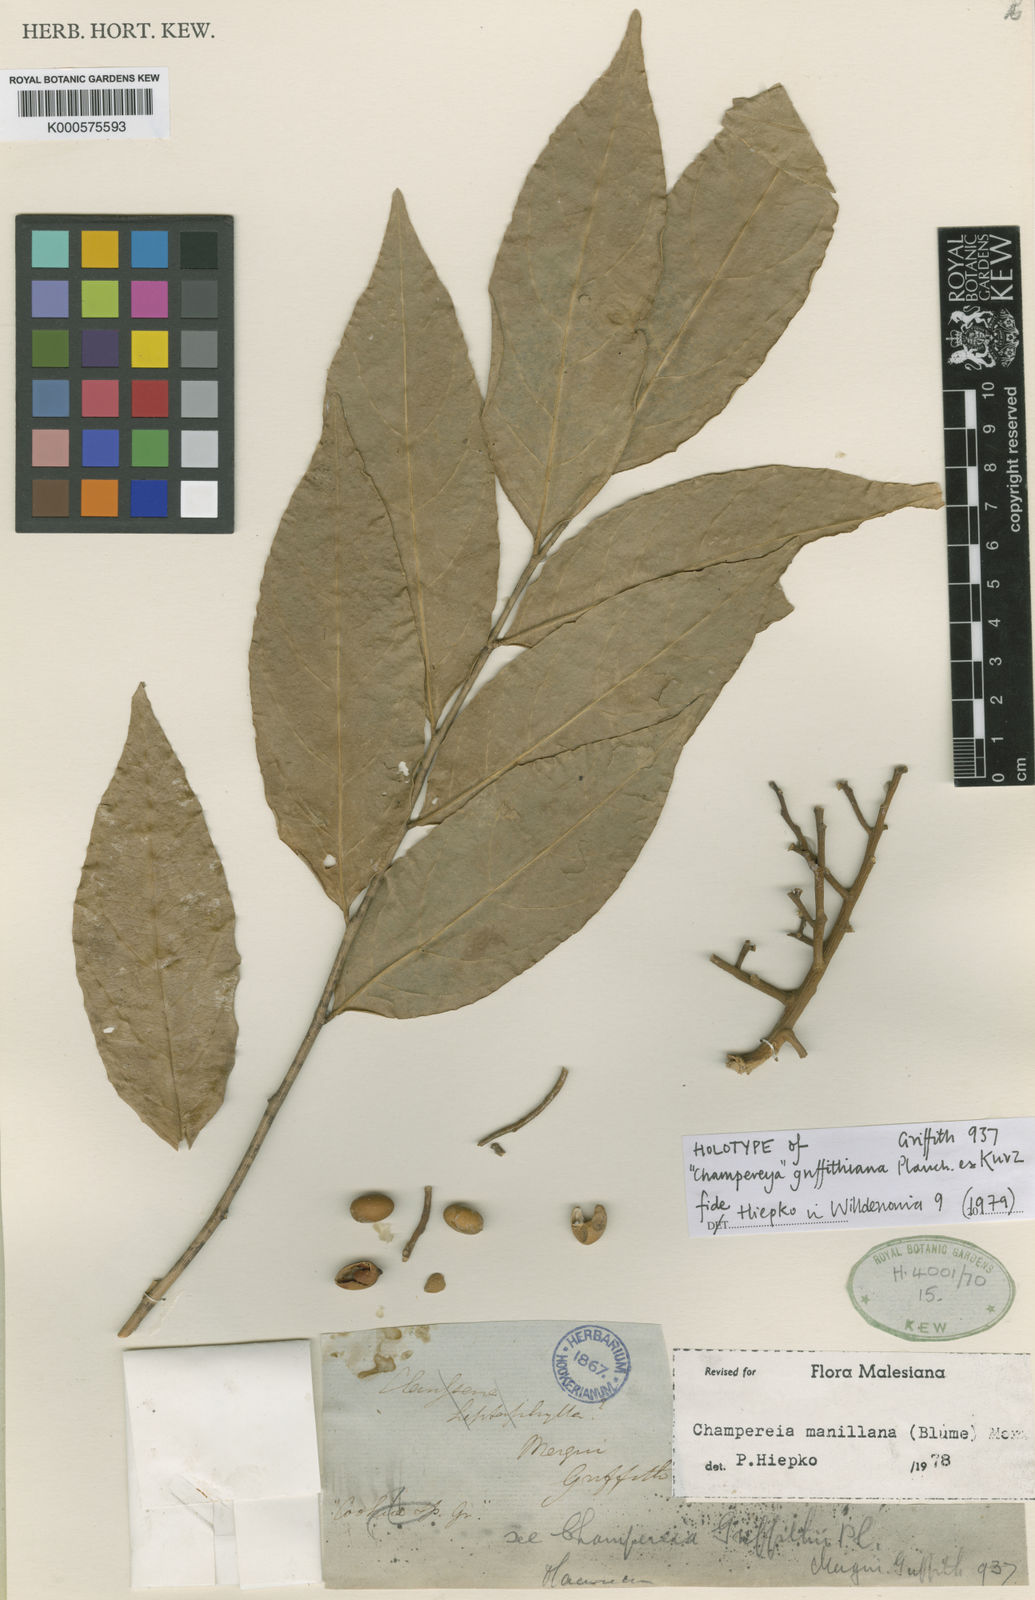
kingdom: Plantae
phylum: Tracheophyta
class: Magnoliopsida
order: Santalales
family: Opiliaceae
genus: Champereia
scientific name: Champereia manillana
